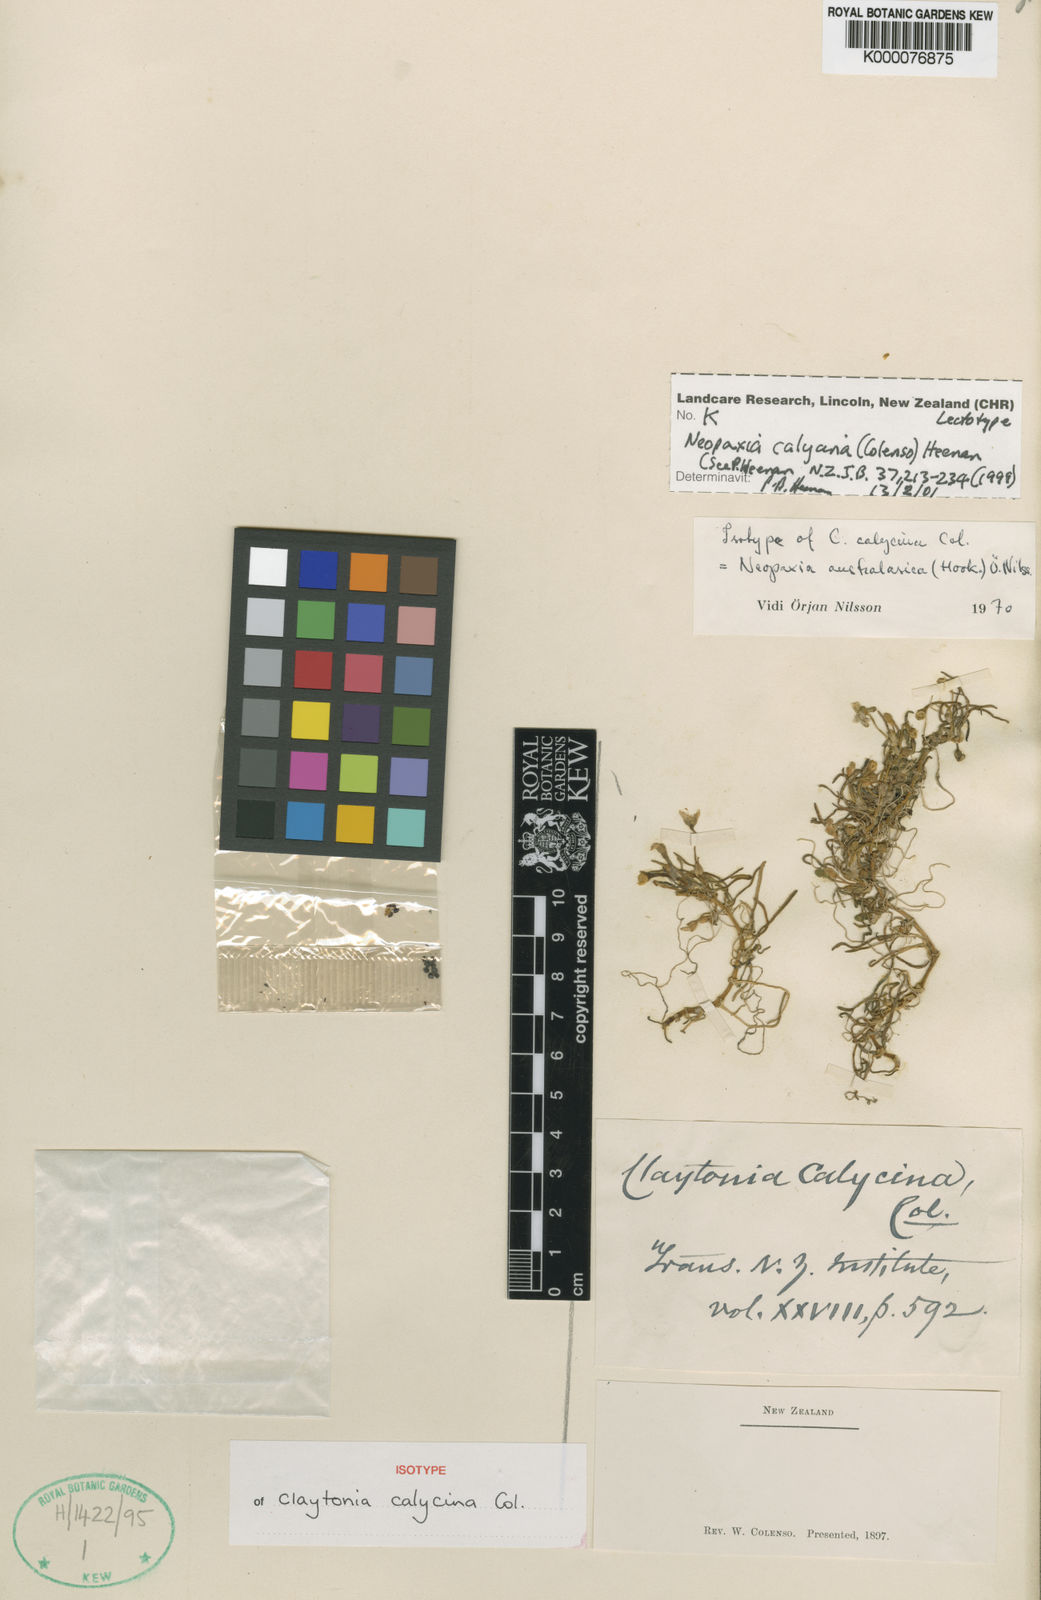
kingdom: Plantae
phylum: Tracheophyta
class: Magnoliopsida
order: Caryophyllales
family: Montiaceae
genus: Montia
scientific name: Montia calycina
